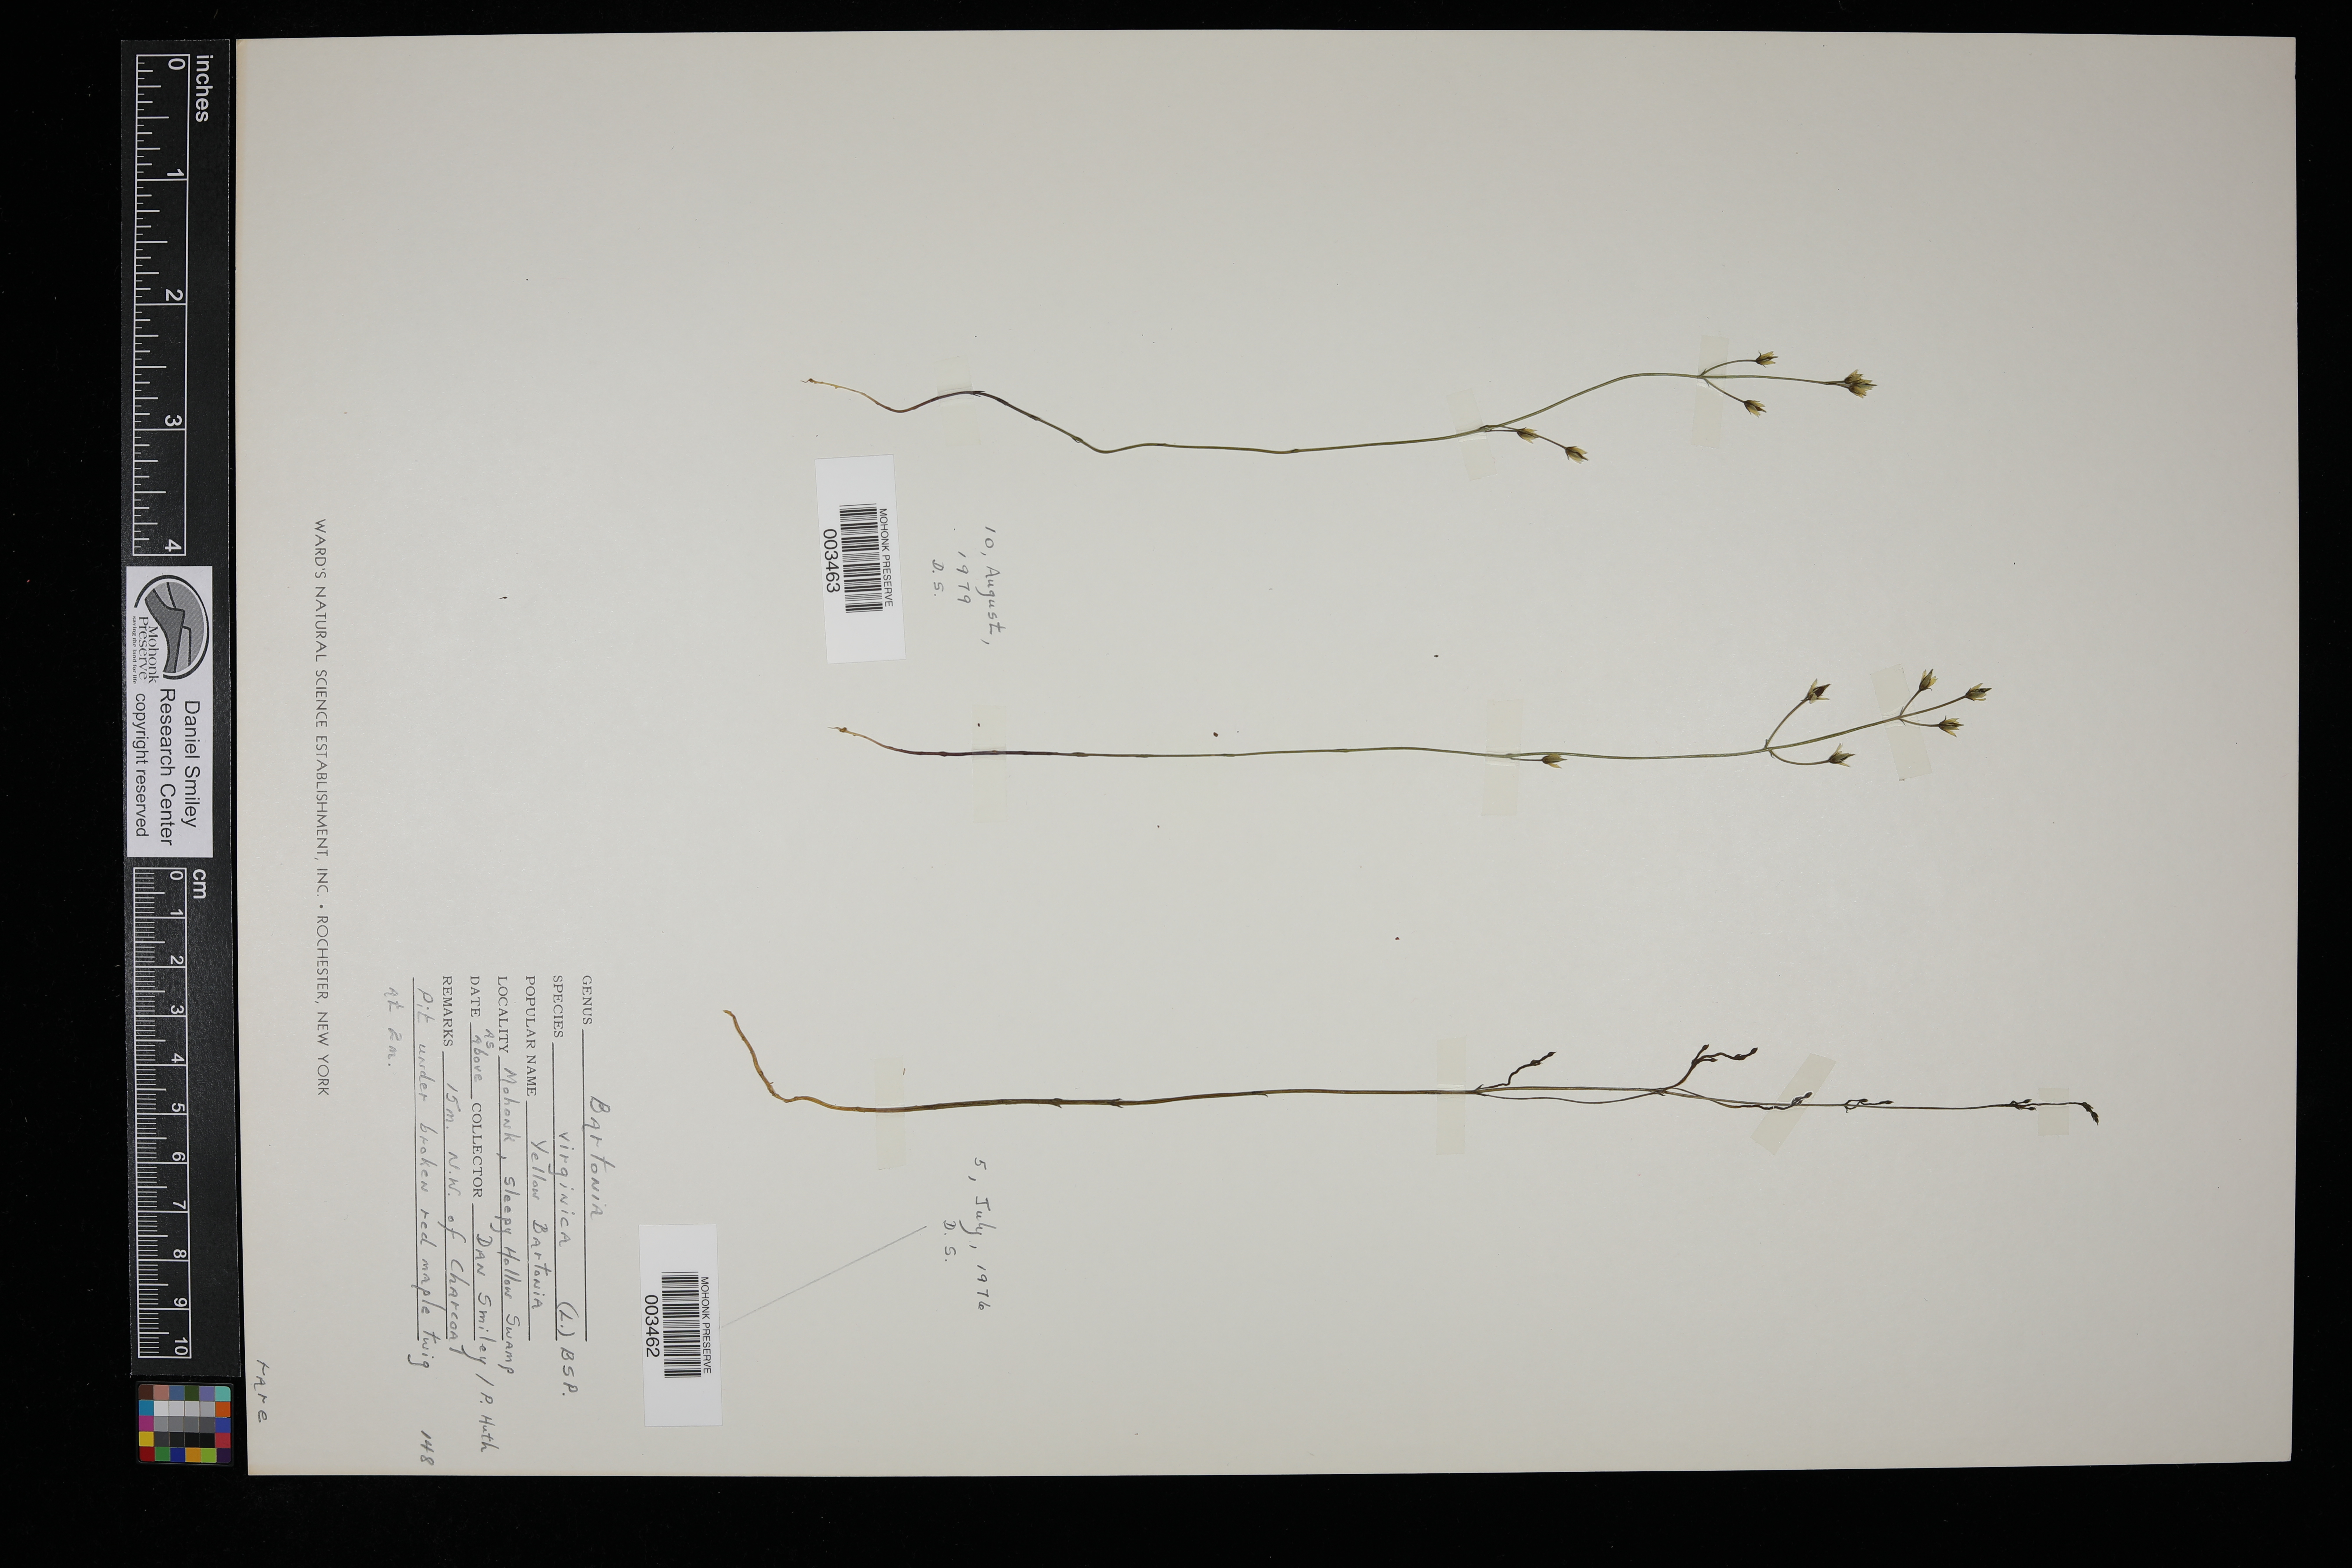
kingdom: Plantae
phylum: Tracheophyta
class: Magnoliopsida
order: Gentianales
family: Gentianaceae
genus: Bartonia
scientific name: Bartonia virginica
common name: Yellow bartonia
